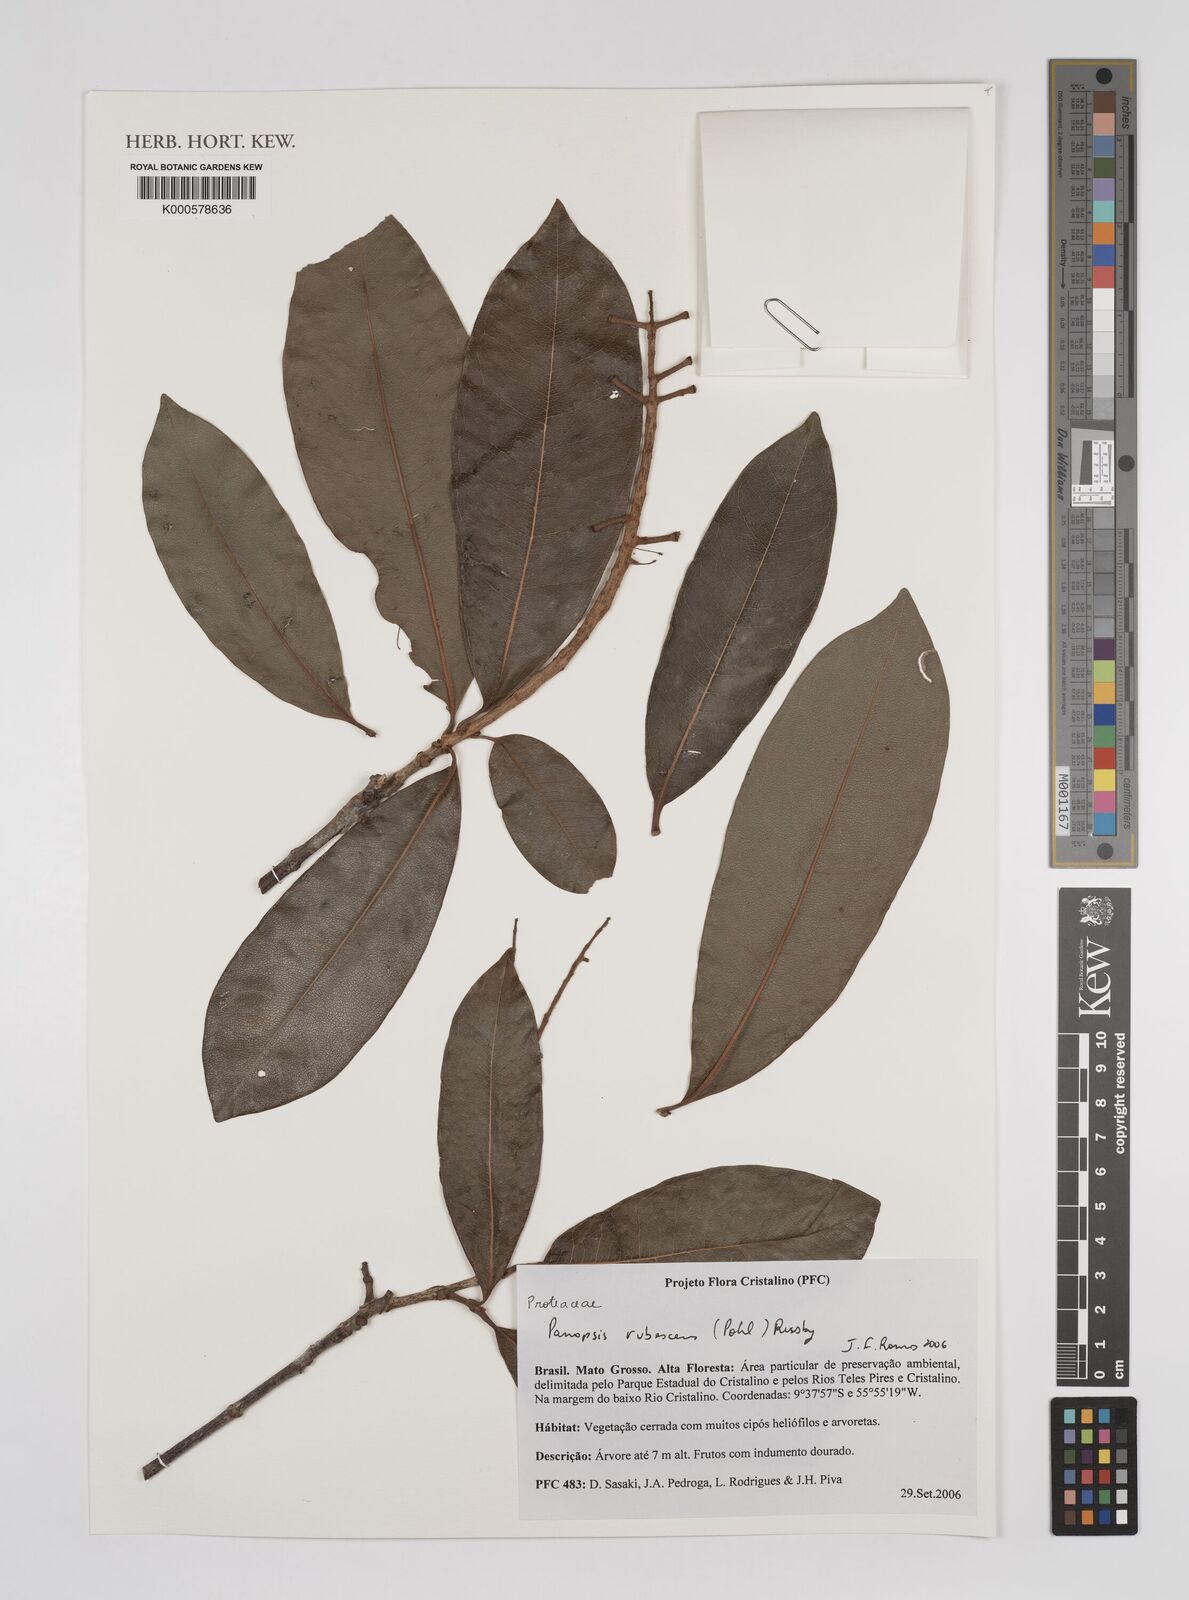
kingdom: Plantae
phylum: Tracheophyta
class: Magnoliopsida
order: Proteales
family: Proteaceae
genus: Panopsis
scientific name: Panopsis
